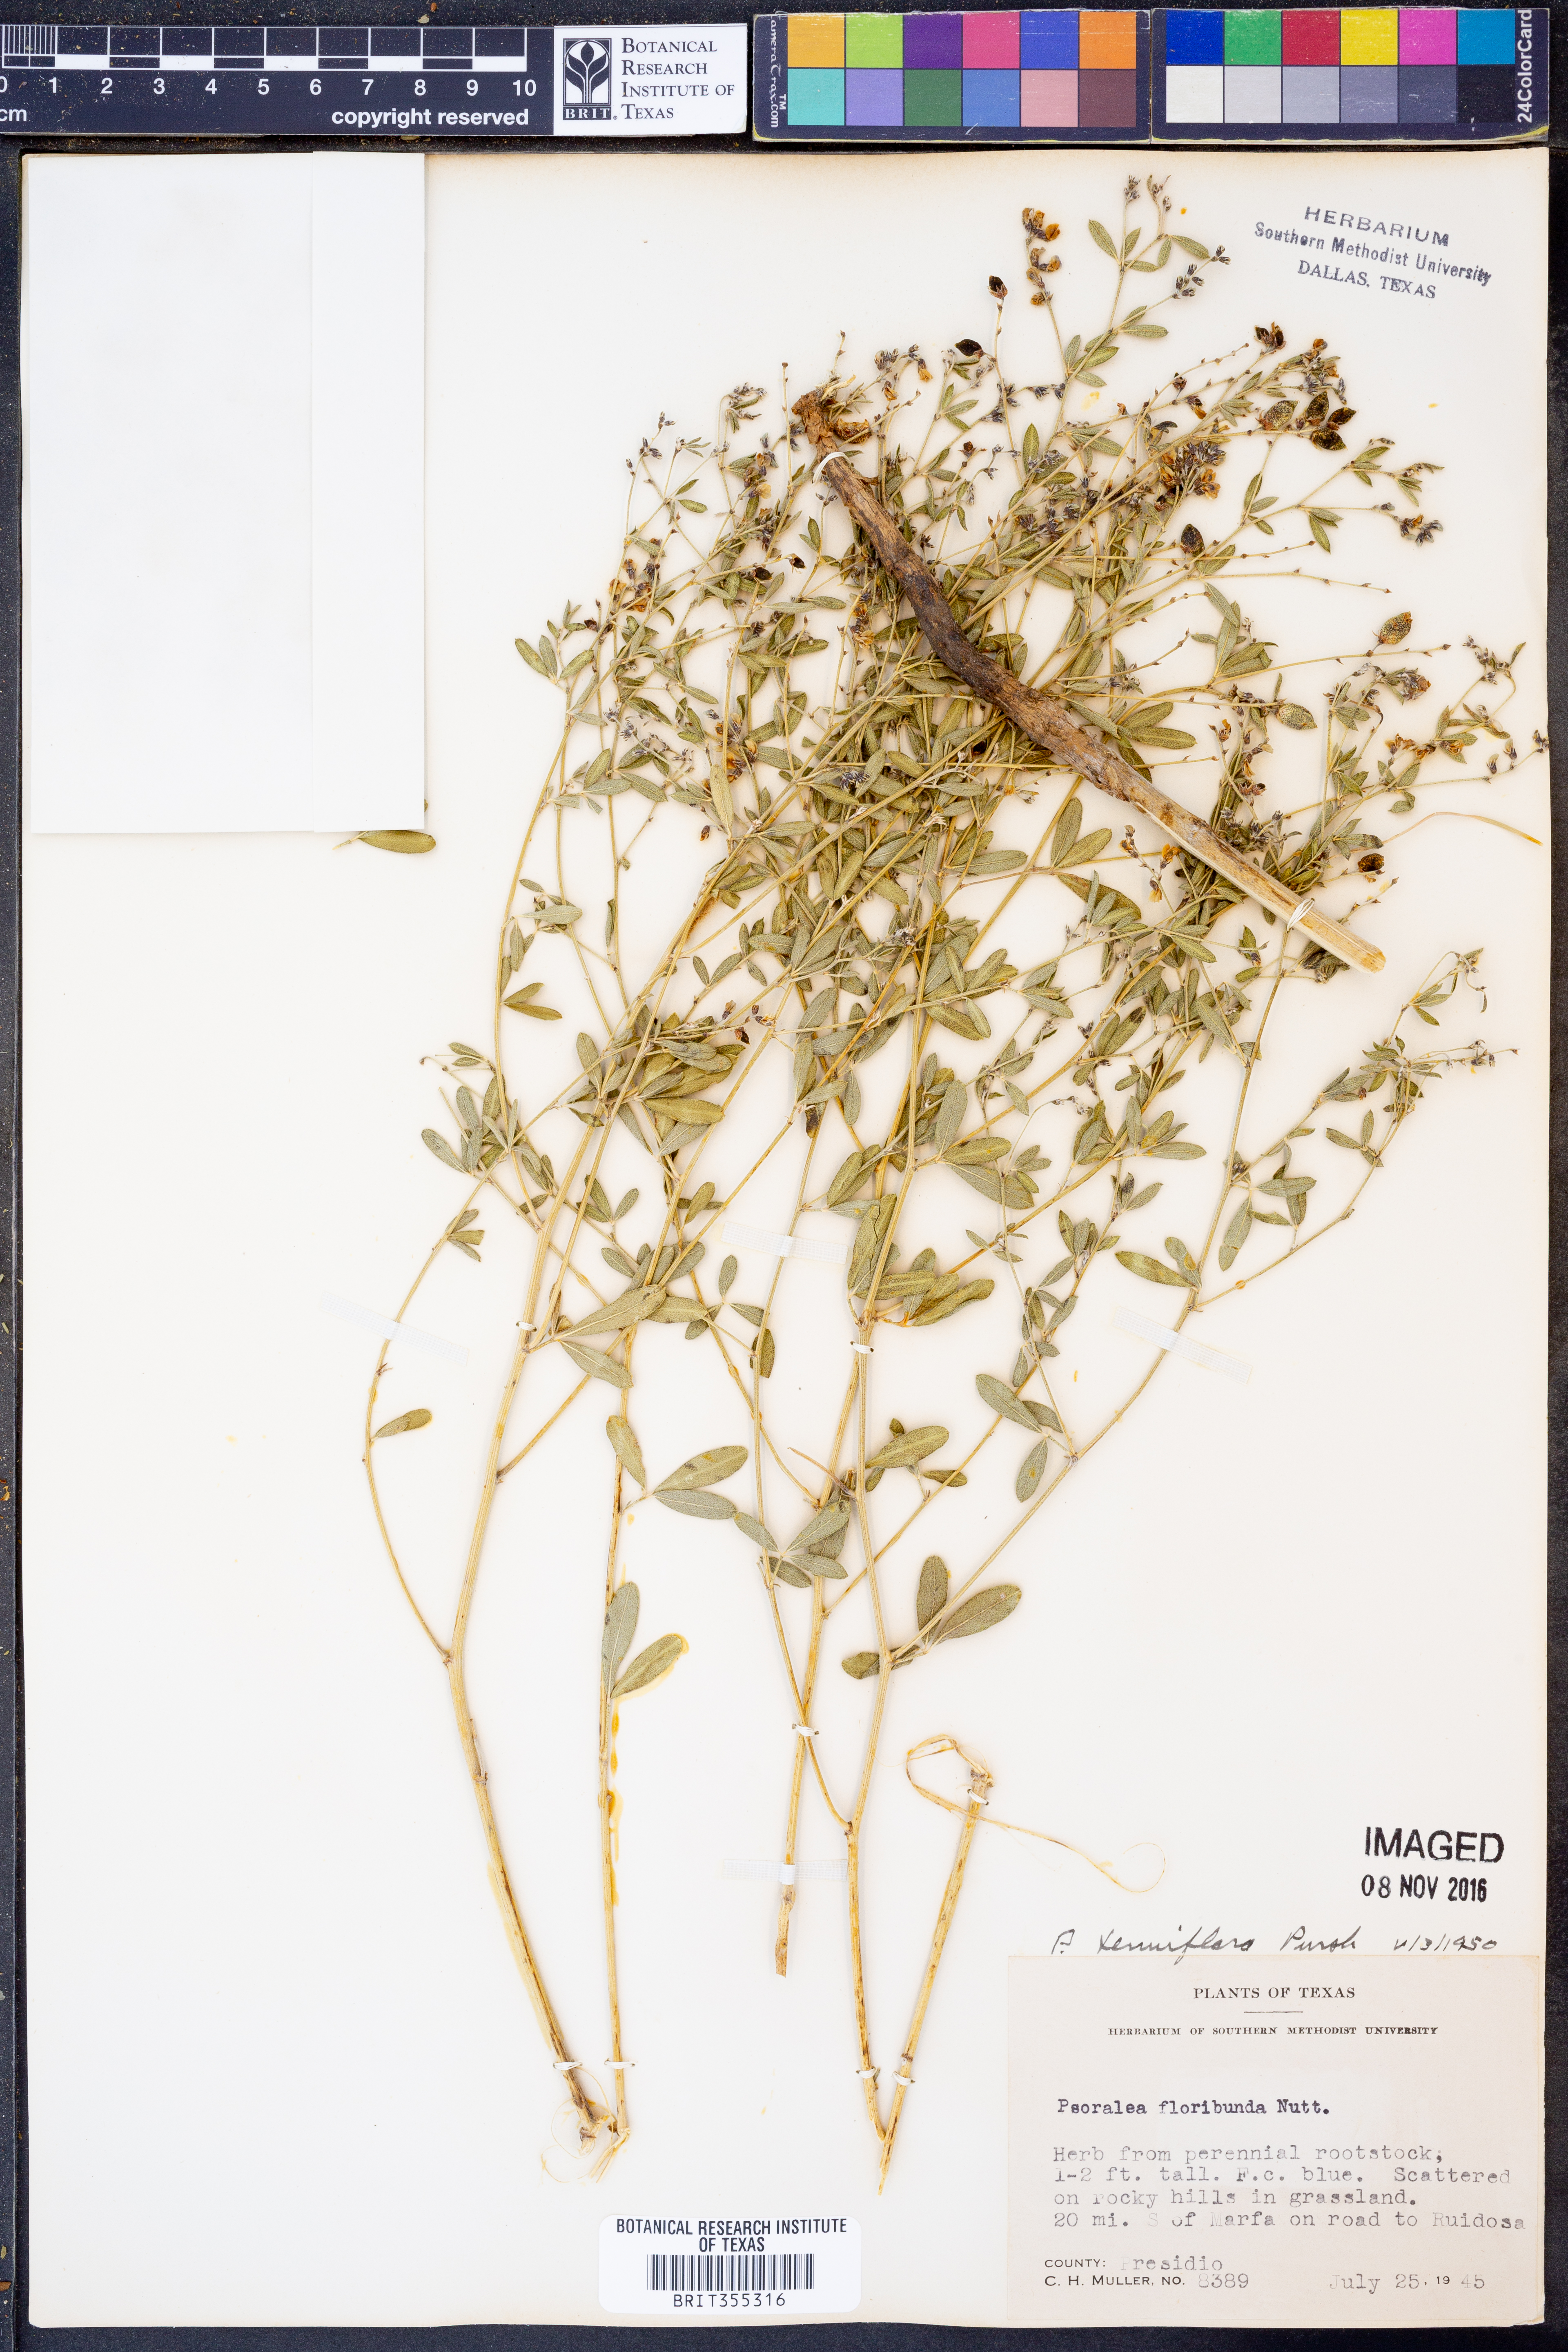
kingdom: Plantae
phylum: Tracheophyta
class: Magnoliopsida
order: Fabales
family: Fabaceae
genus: Pediomelum
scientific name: Pediomelum tenuiflorum
